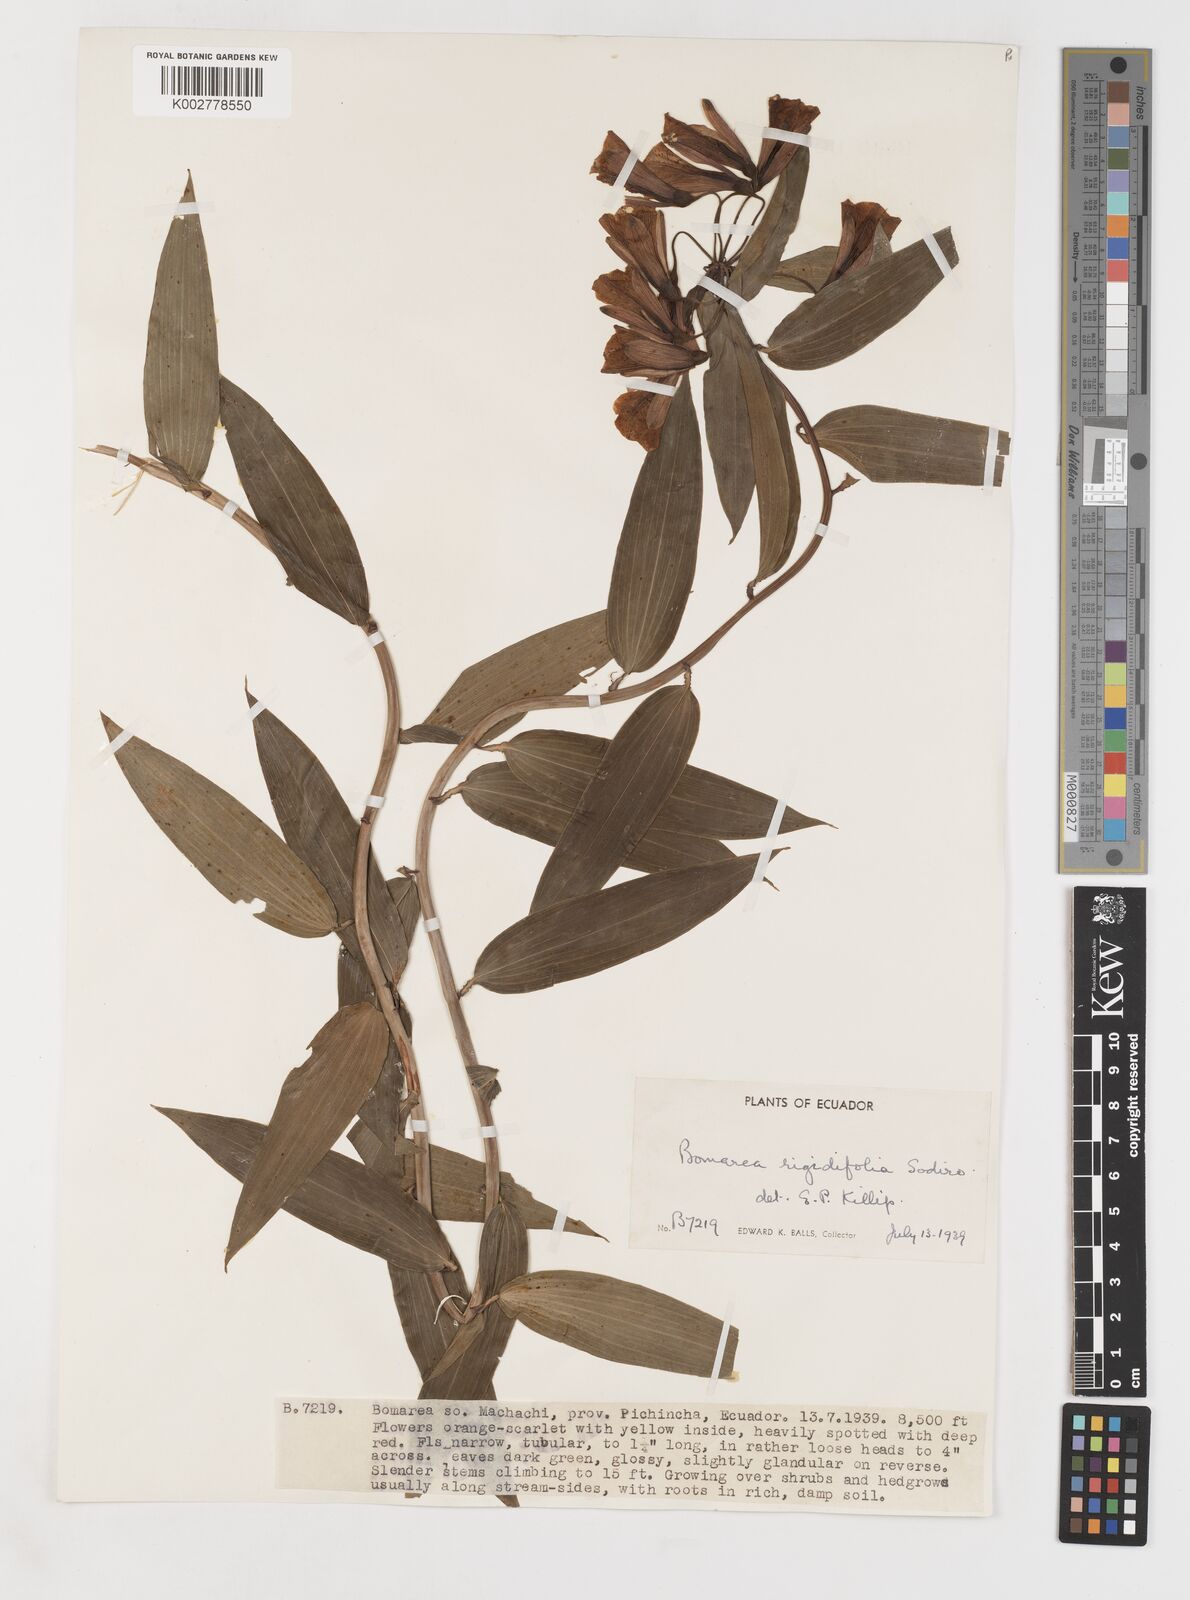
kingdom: Plantae
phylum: Tracheophyta
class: Liliopsida
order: Liliales
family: Alstroemeriaceae
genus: Bomarea
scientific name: Bomarea multiflora
